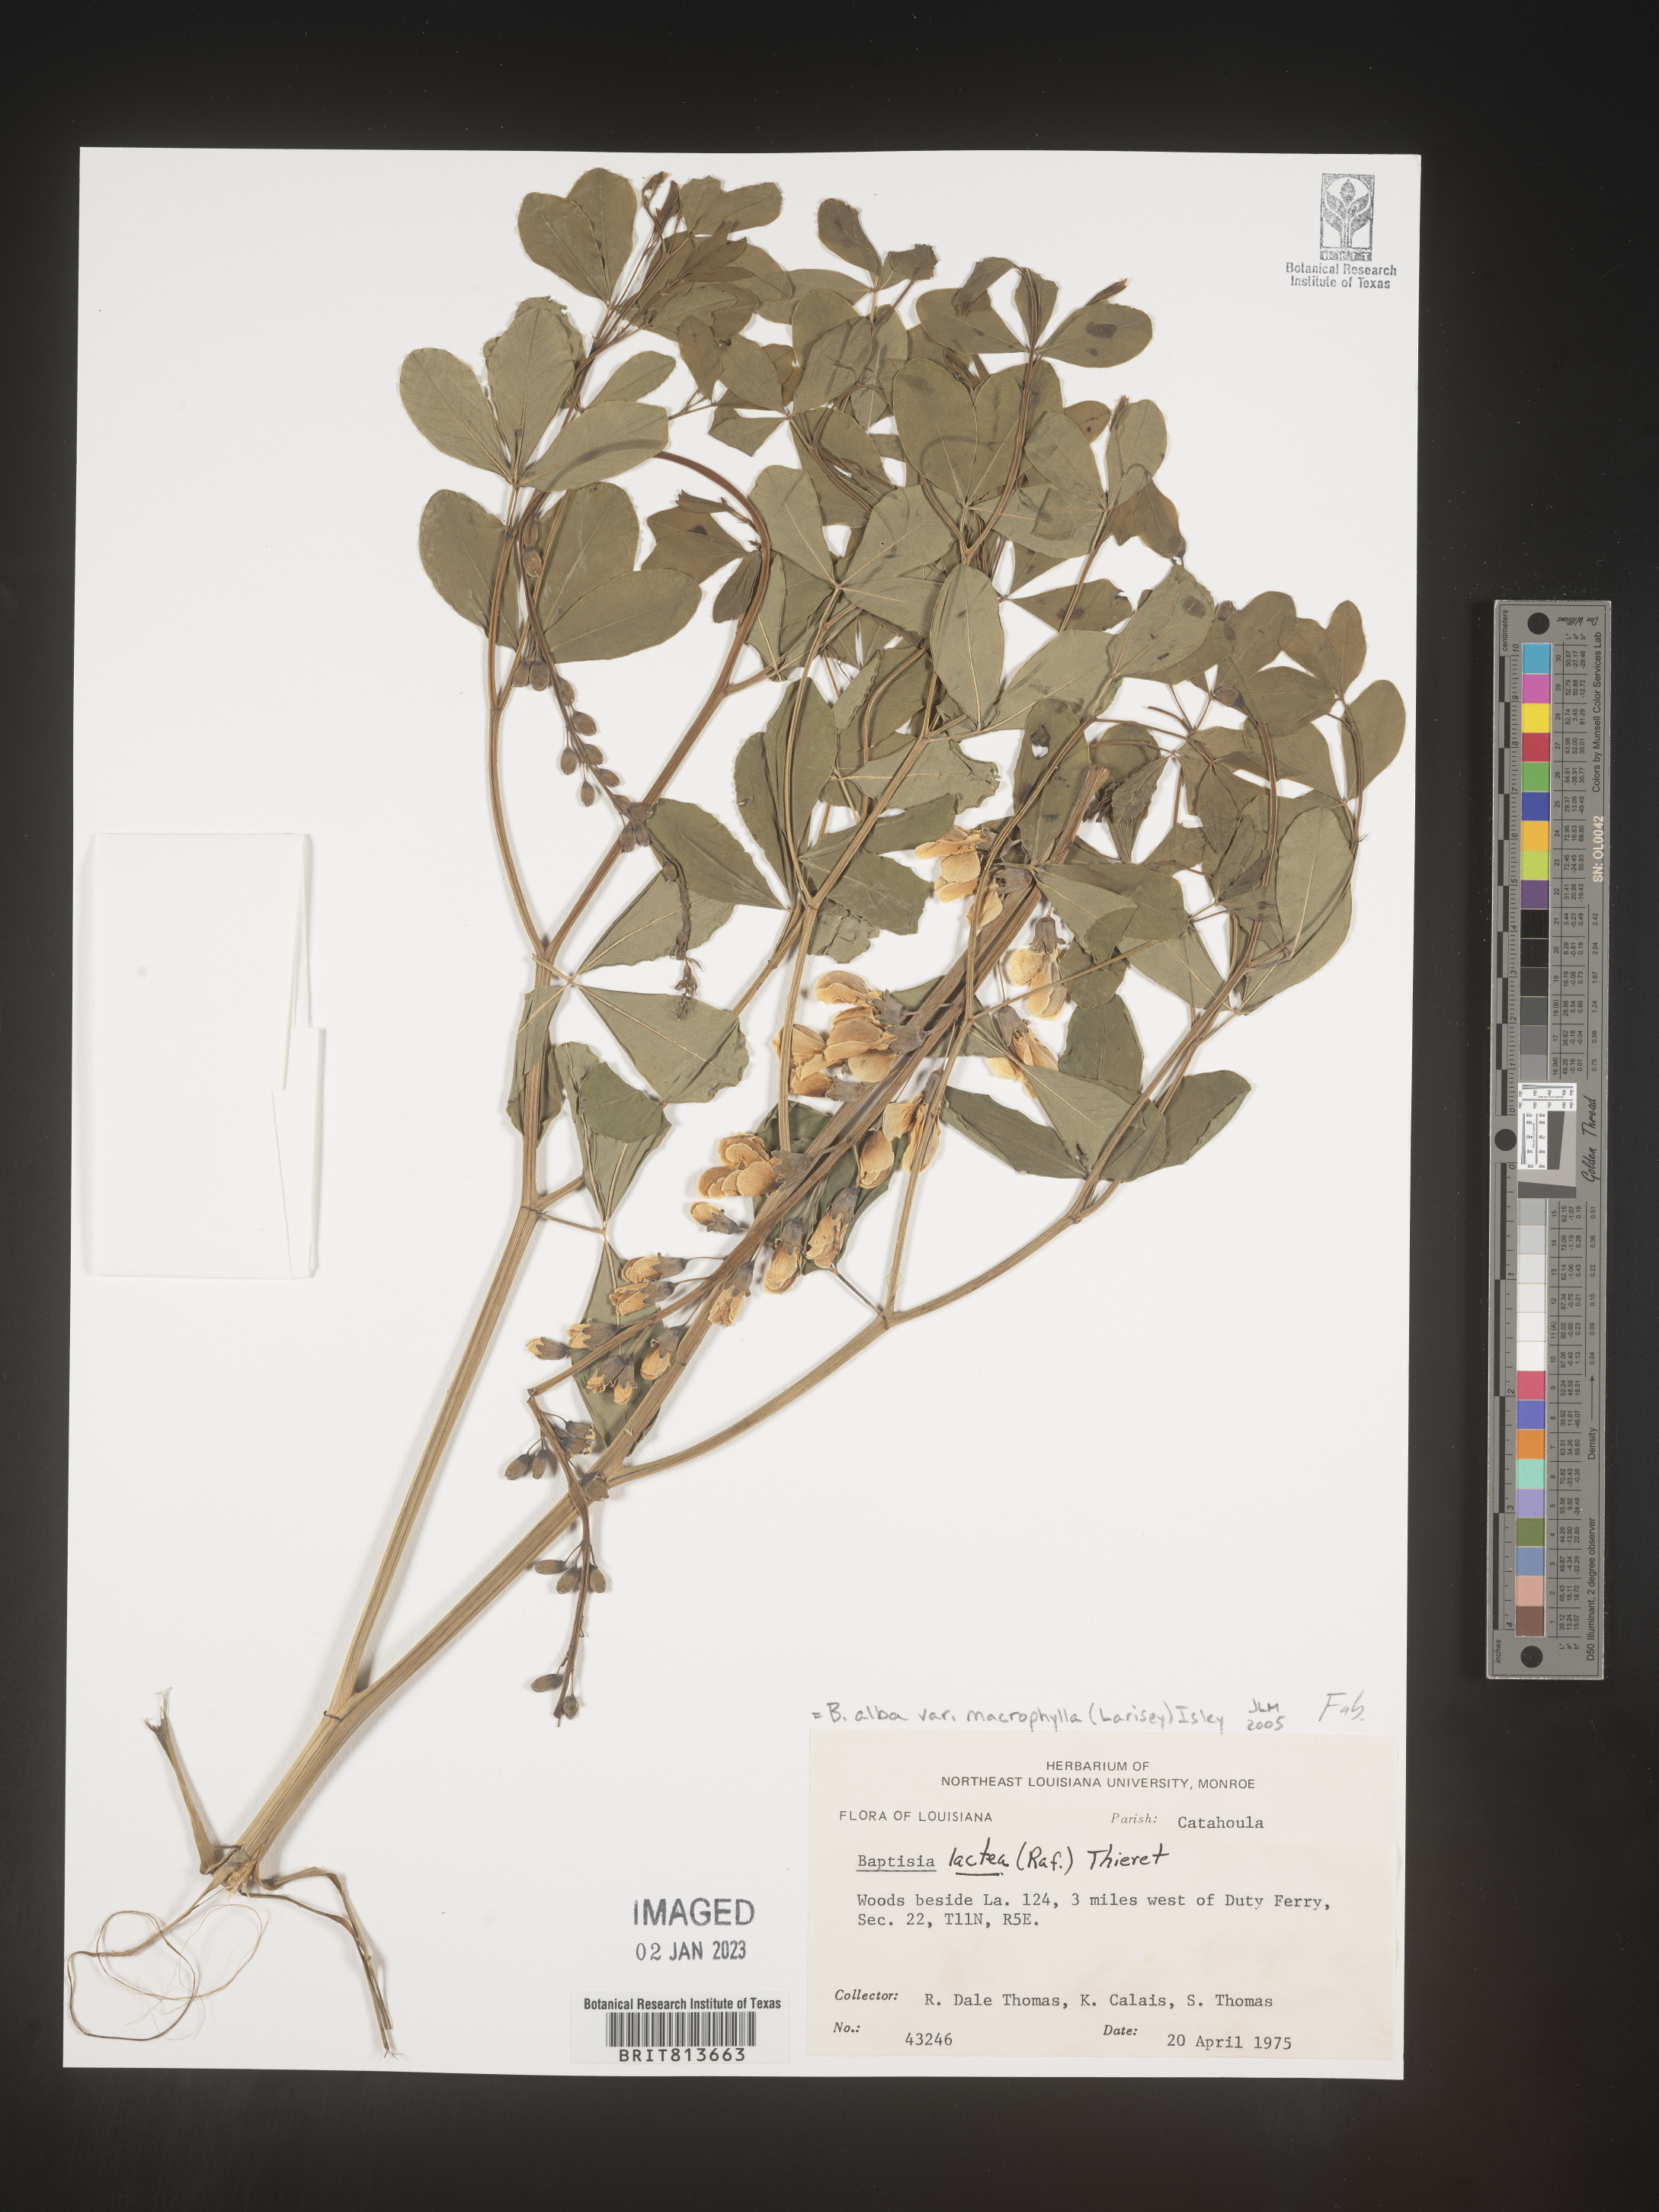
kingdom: Plantae
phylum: Tracheophyta
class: Magnoliopsida
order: Fabales
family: Fabaceae
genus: Baptisia
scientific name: Baptisia alba
